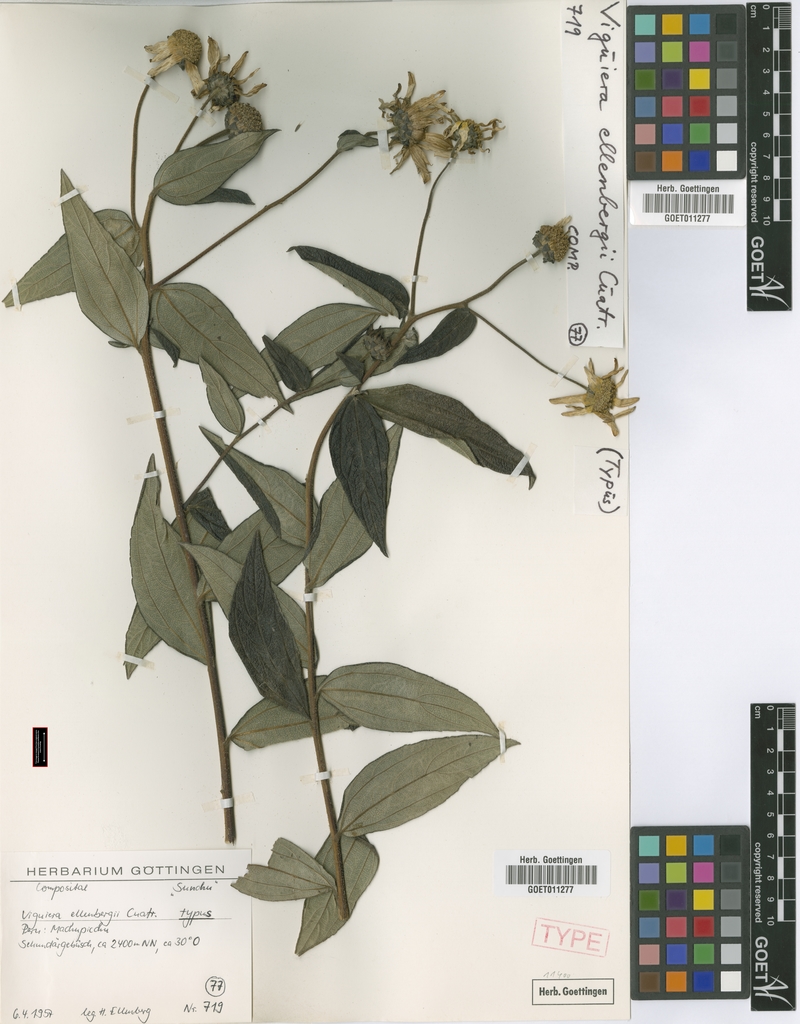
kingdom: Plantae
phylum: Tracheophyta
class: Magnoliopsida
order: Asterales
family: Asteraceae
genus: Aldama
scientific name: Aldama ellenbergii
